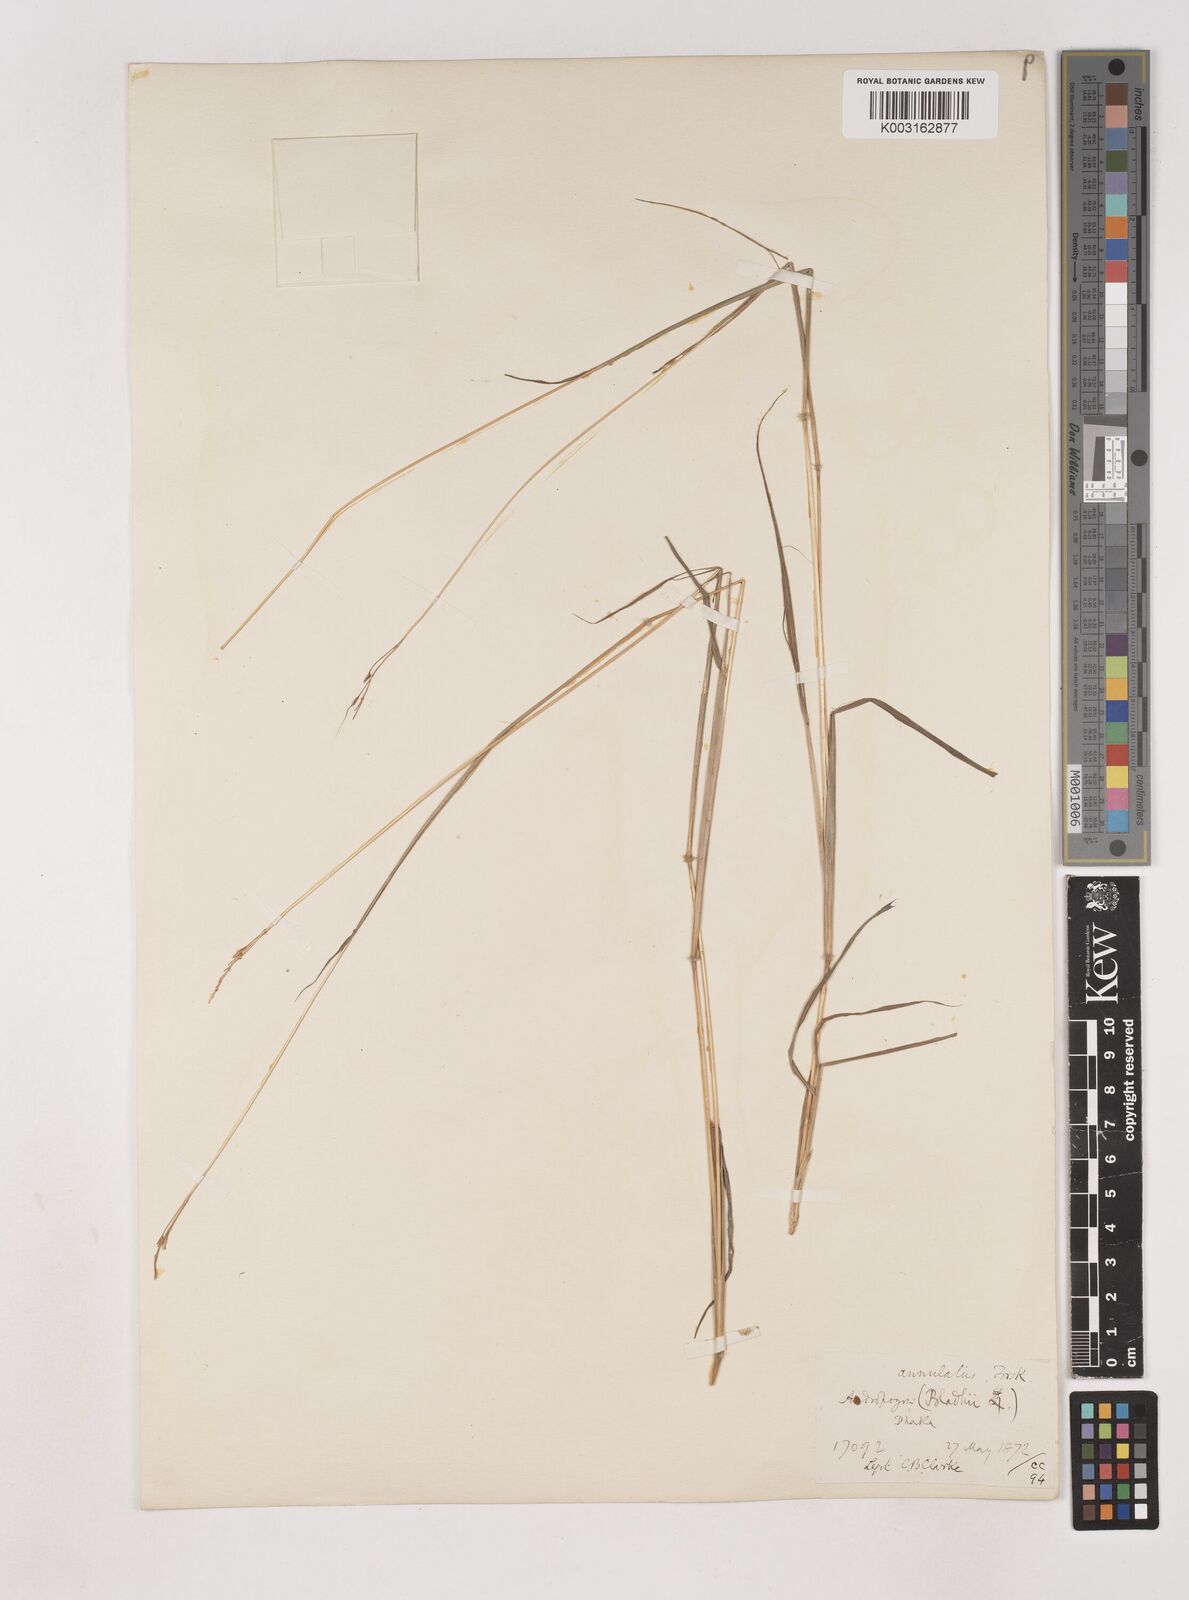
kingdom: Plantae
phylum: Tracheophyta
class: Liliopsida
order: Poales
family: Poaceae
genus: Dichanthium
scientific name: Dichanthium annulatum
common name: Kleberg's bluestem
